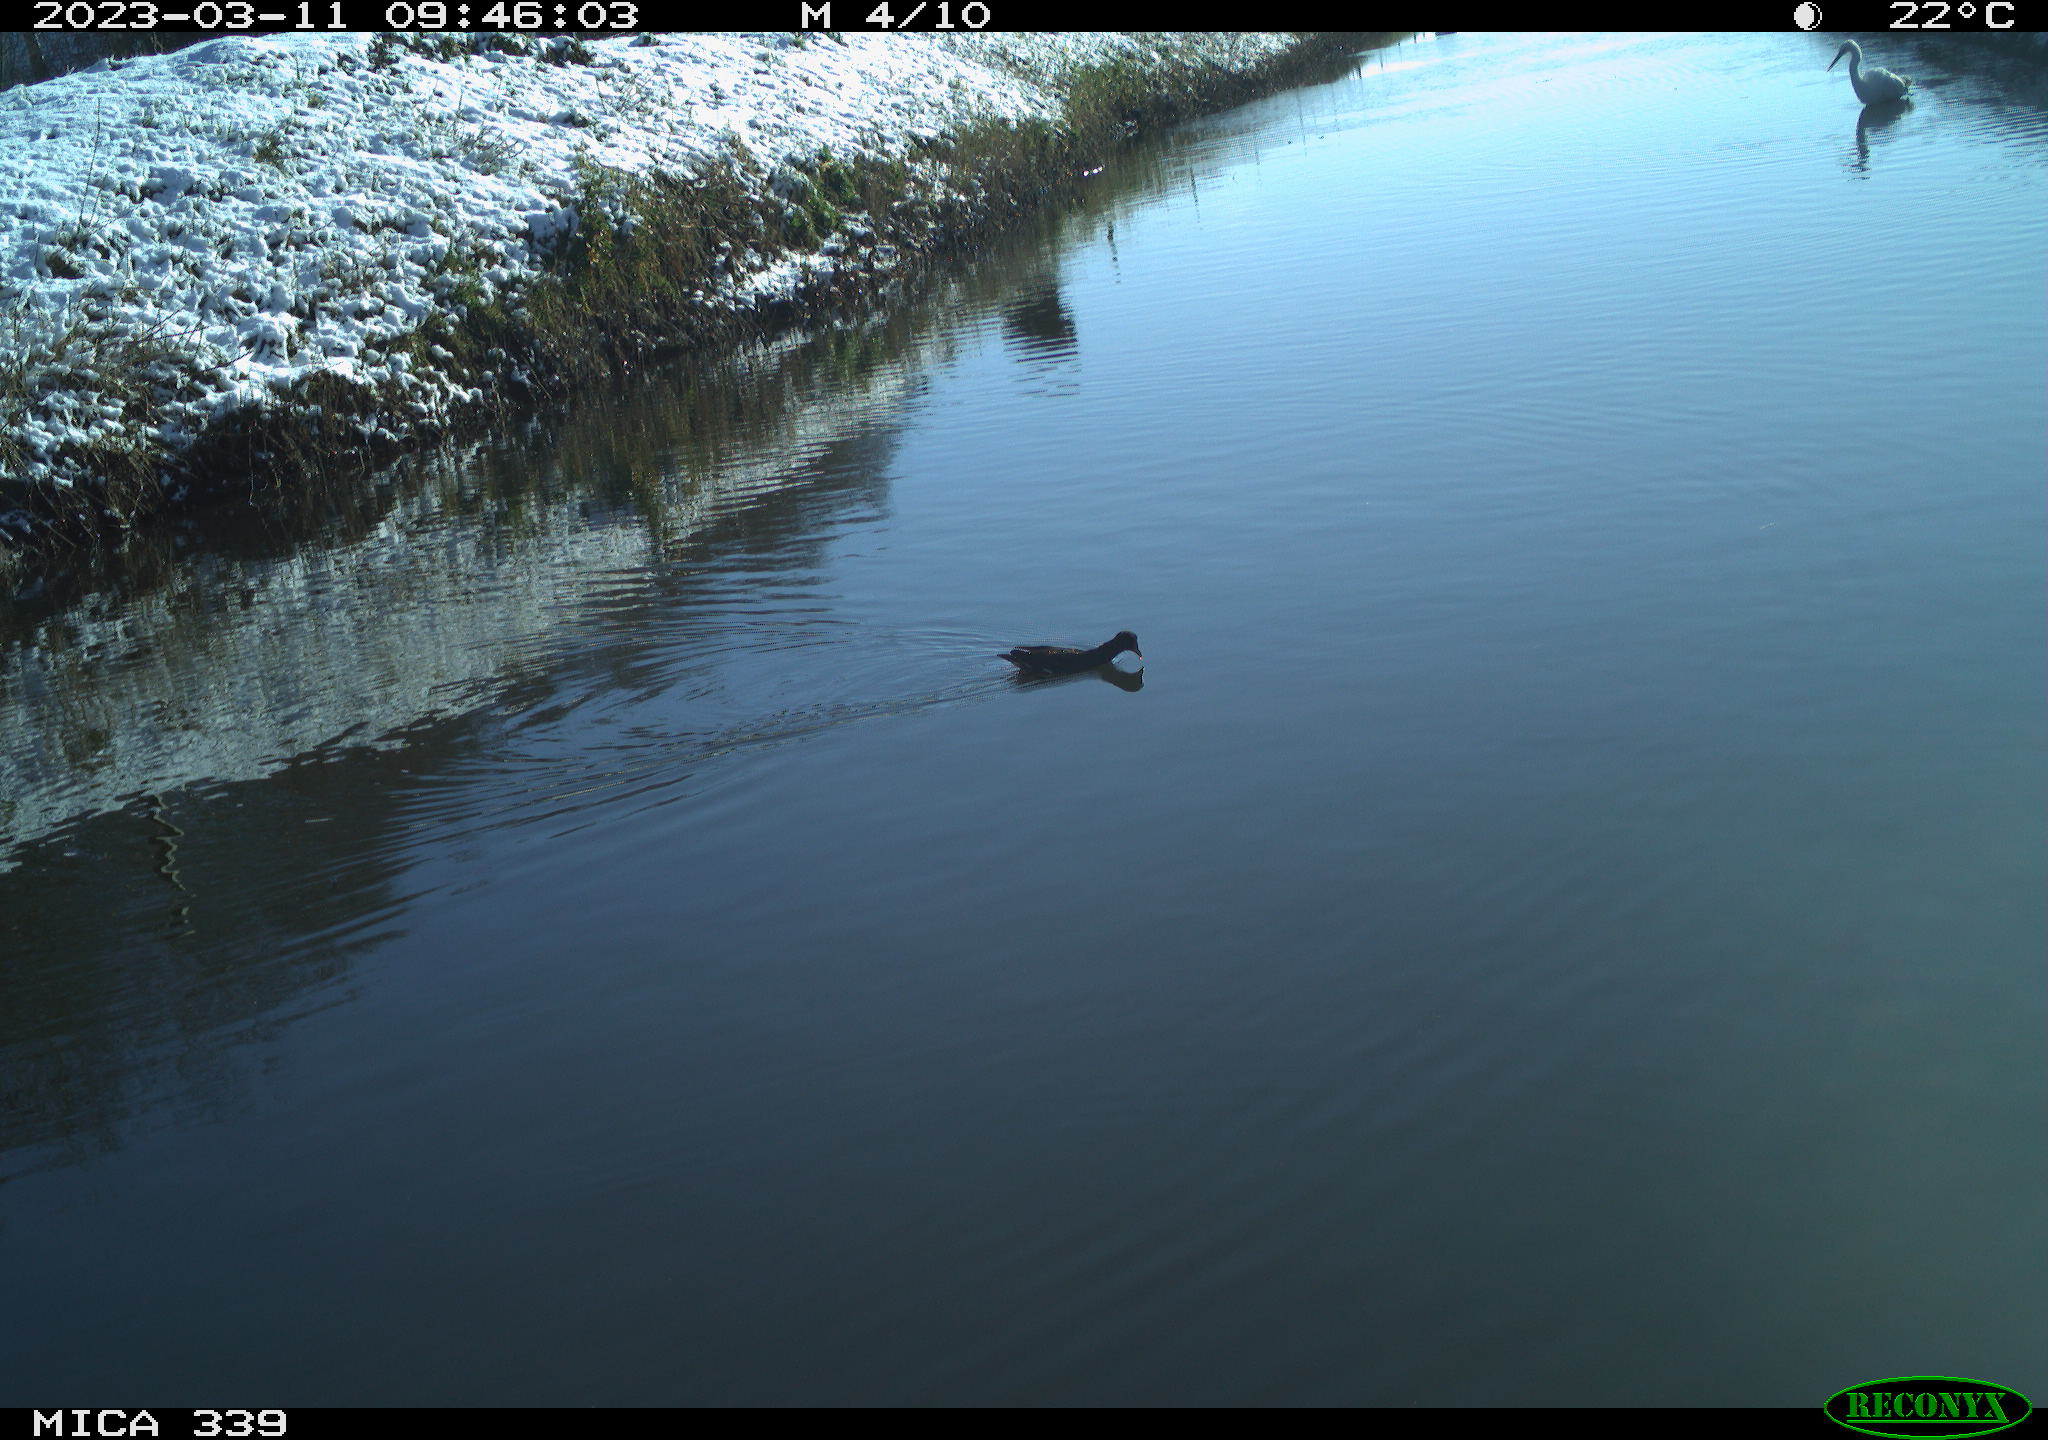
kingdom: Animalia
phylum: Chordata
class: Aves
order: Gruiformes
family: Rallidae
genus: Gallinula
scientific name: Gallinula chloropus
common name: Common moorhen
